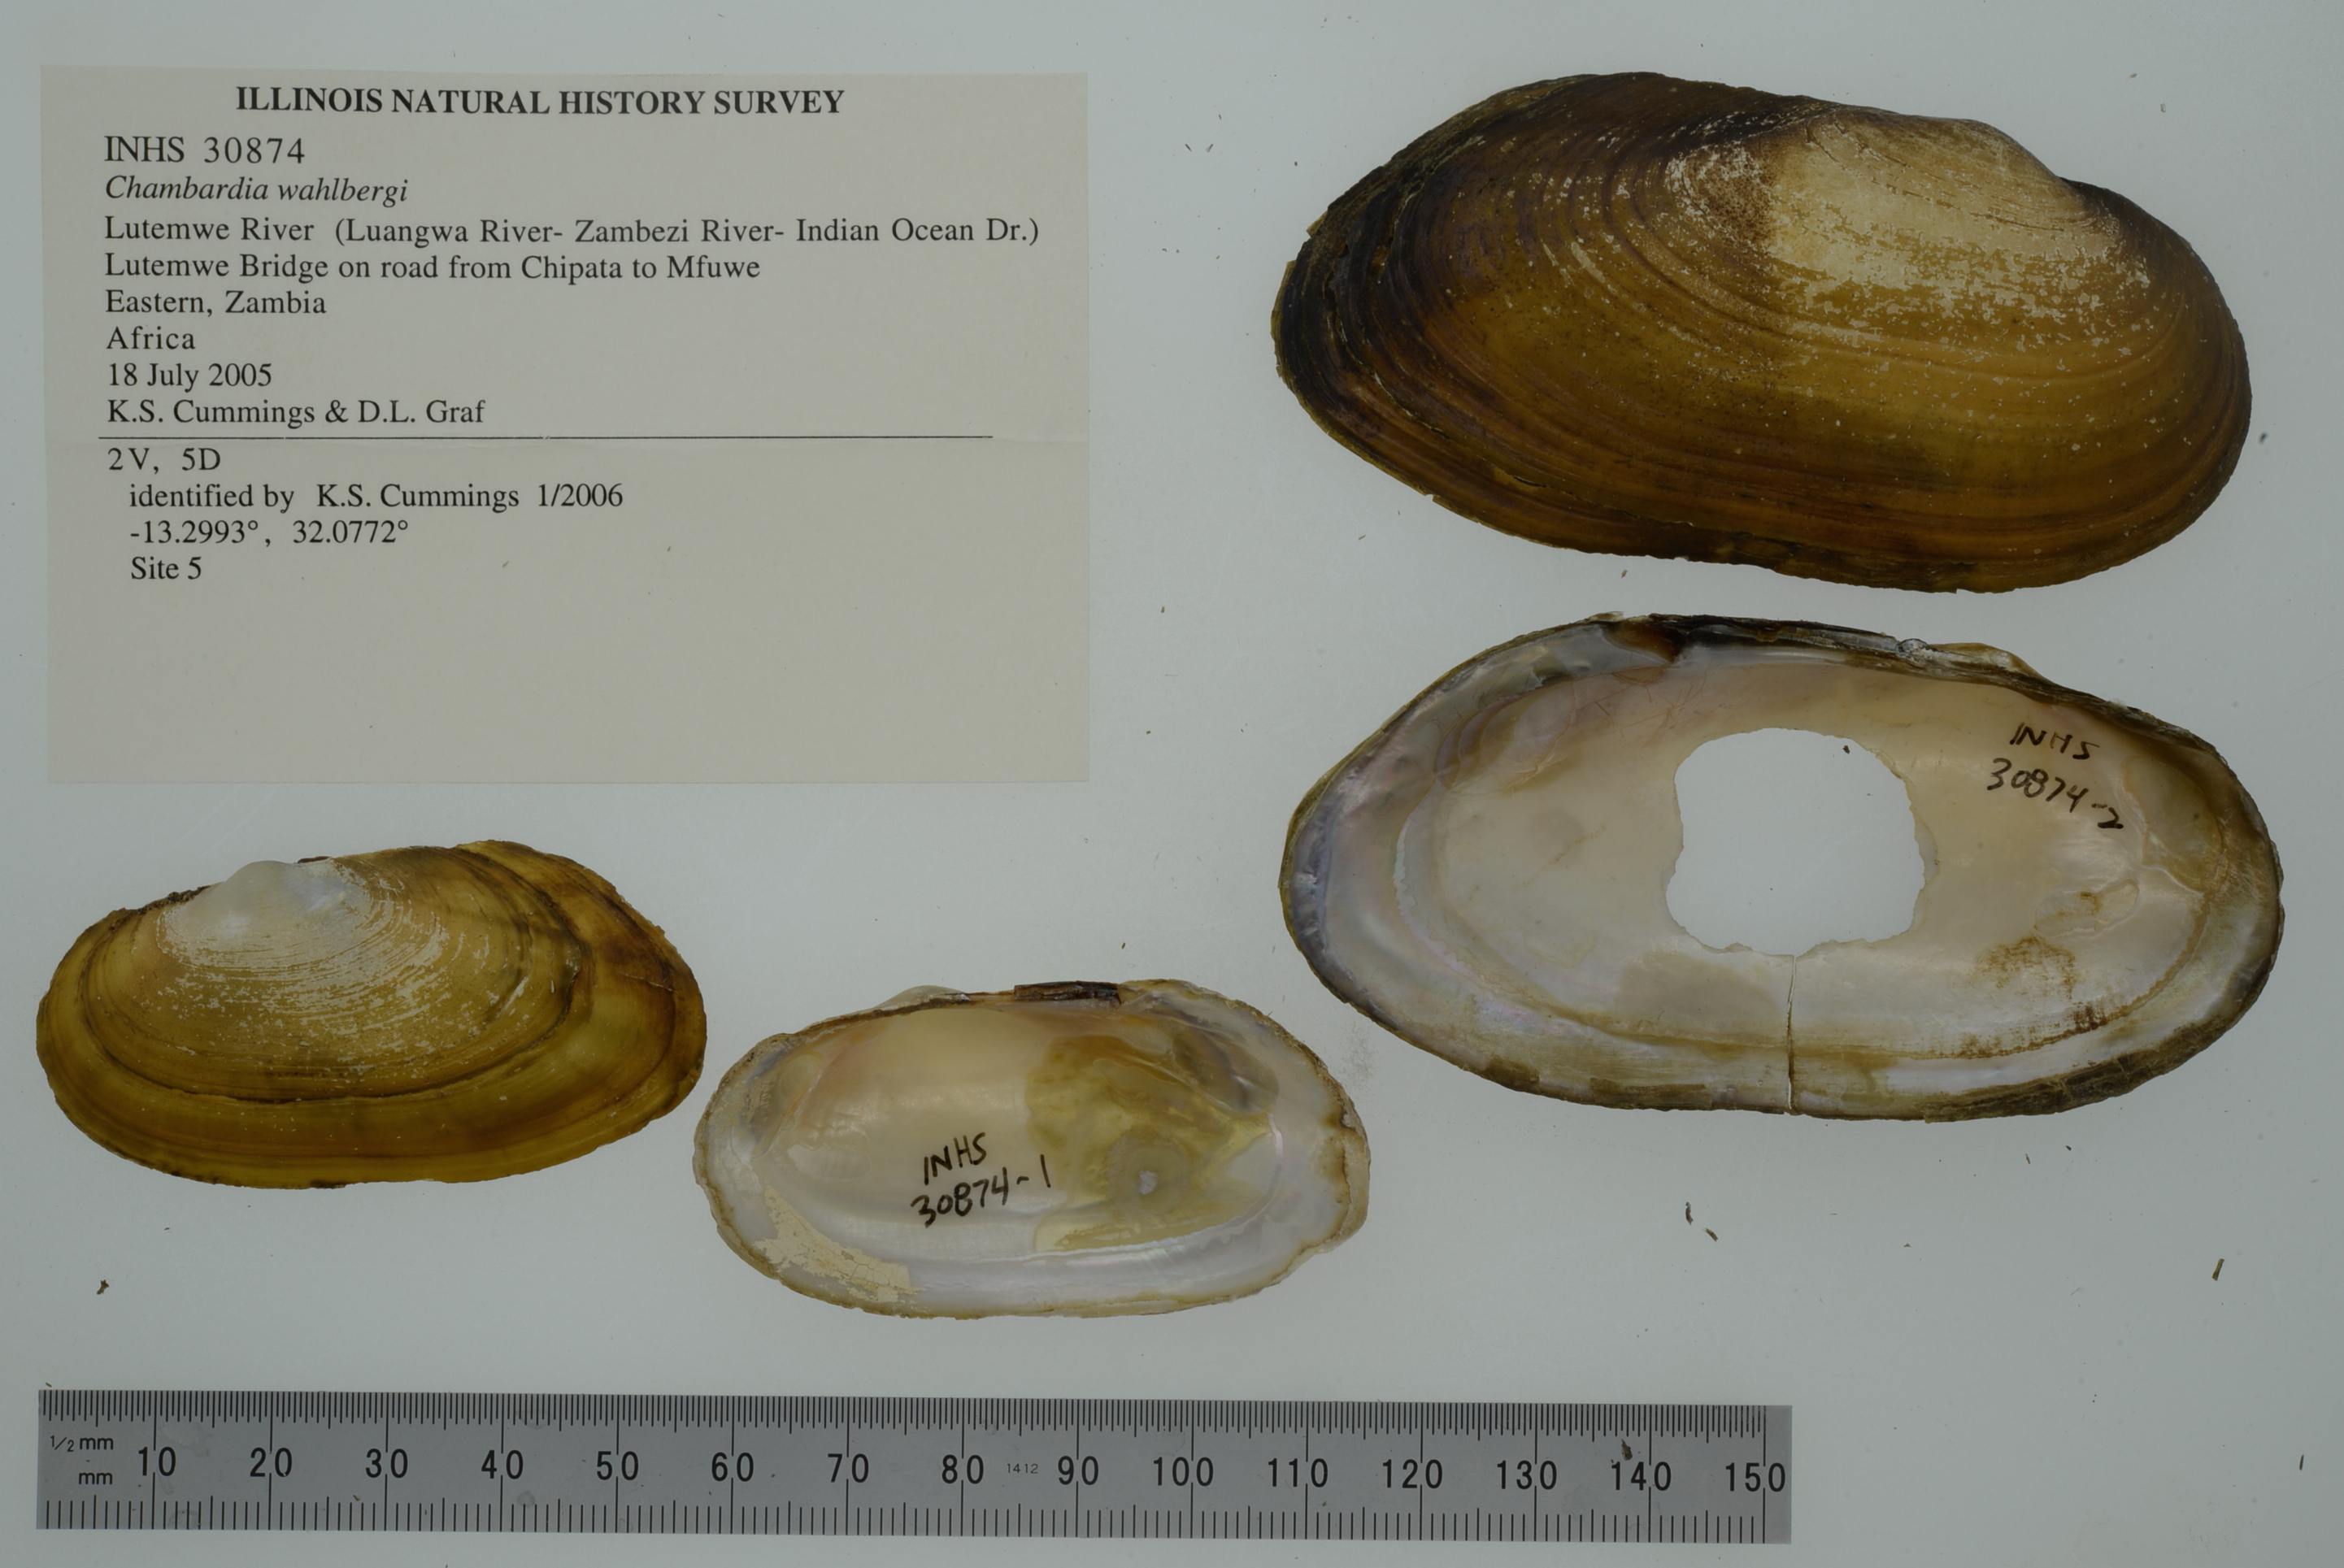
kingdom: Animalia
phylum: Mollusca
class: Bivalvia
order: Unionida
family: Iridinidae
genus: Chambardia
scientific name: Chambardia wahlbergi
